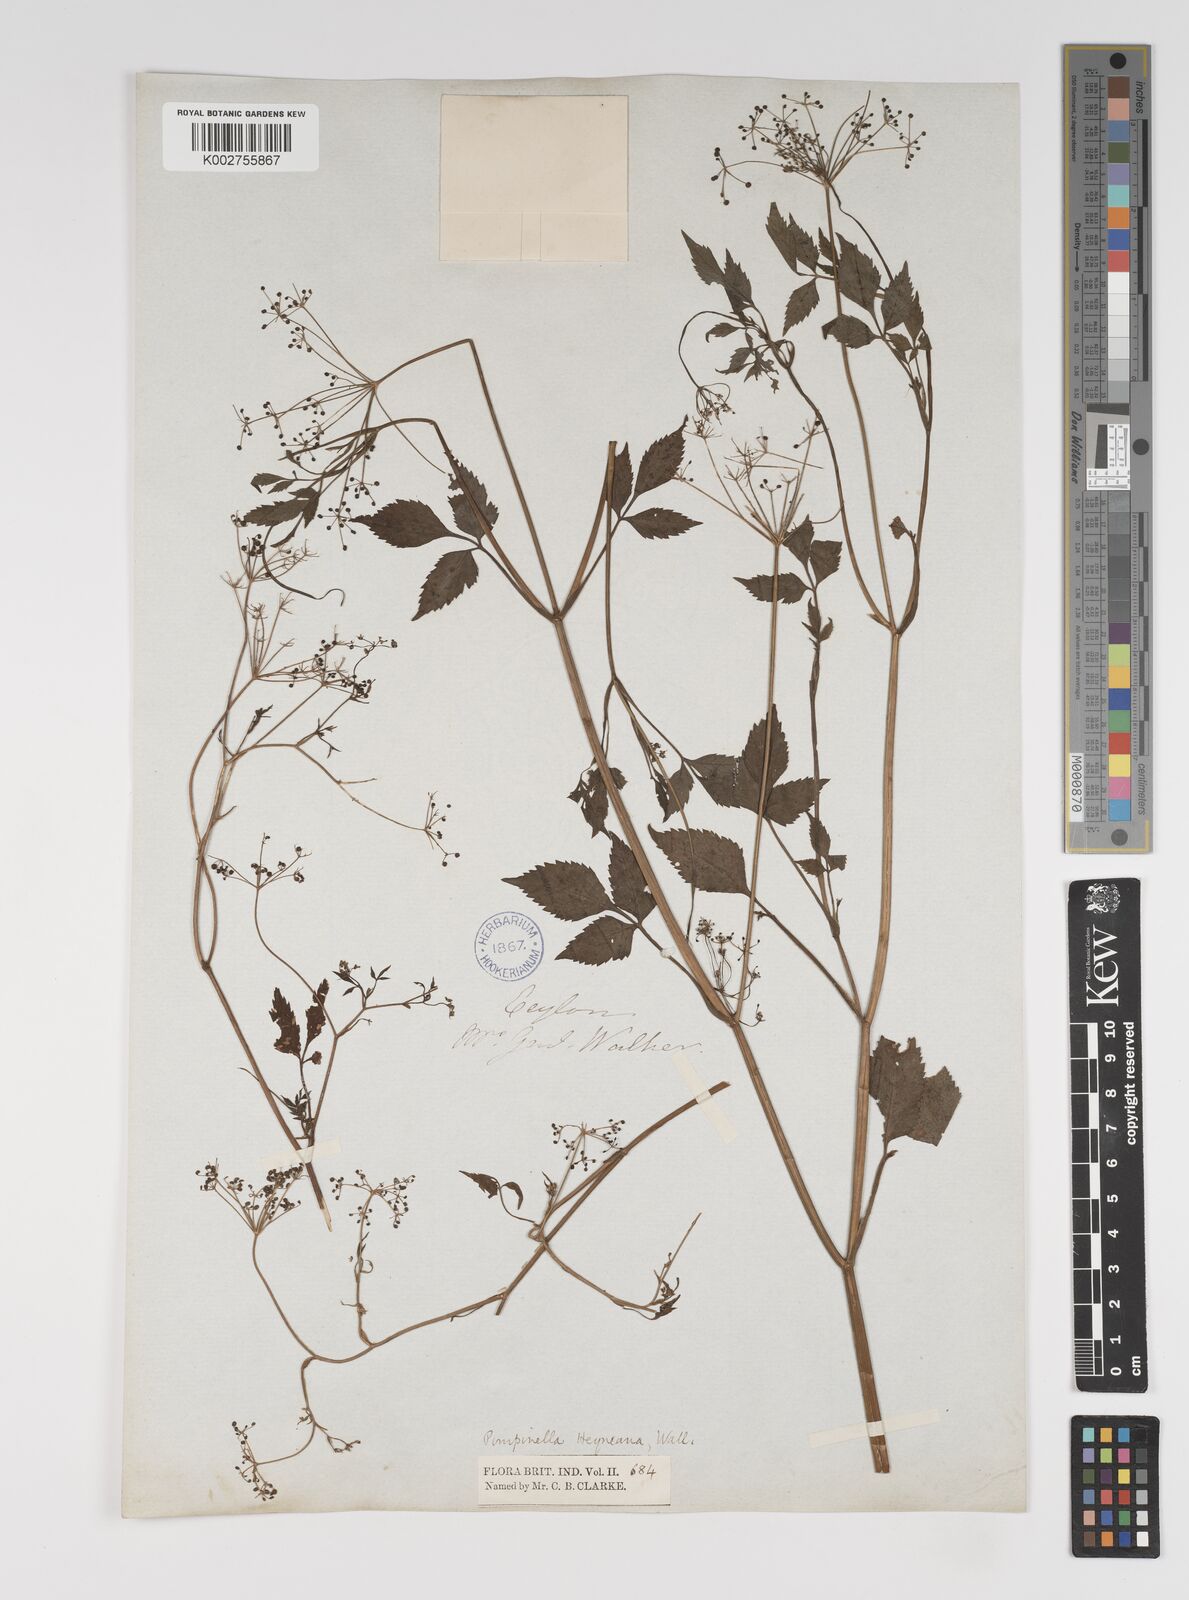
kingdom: Plantae
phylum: Tracheophyta
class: Magnoliopsida
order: Apiales
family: Apiaceae
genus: Pimpinella
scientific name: Pimpinella heyneana
